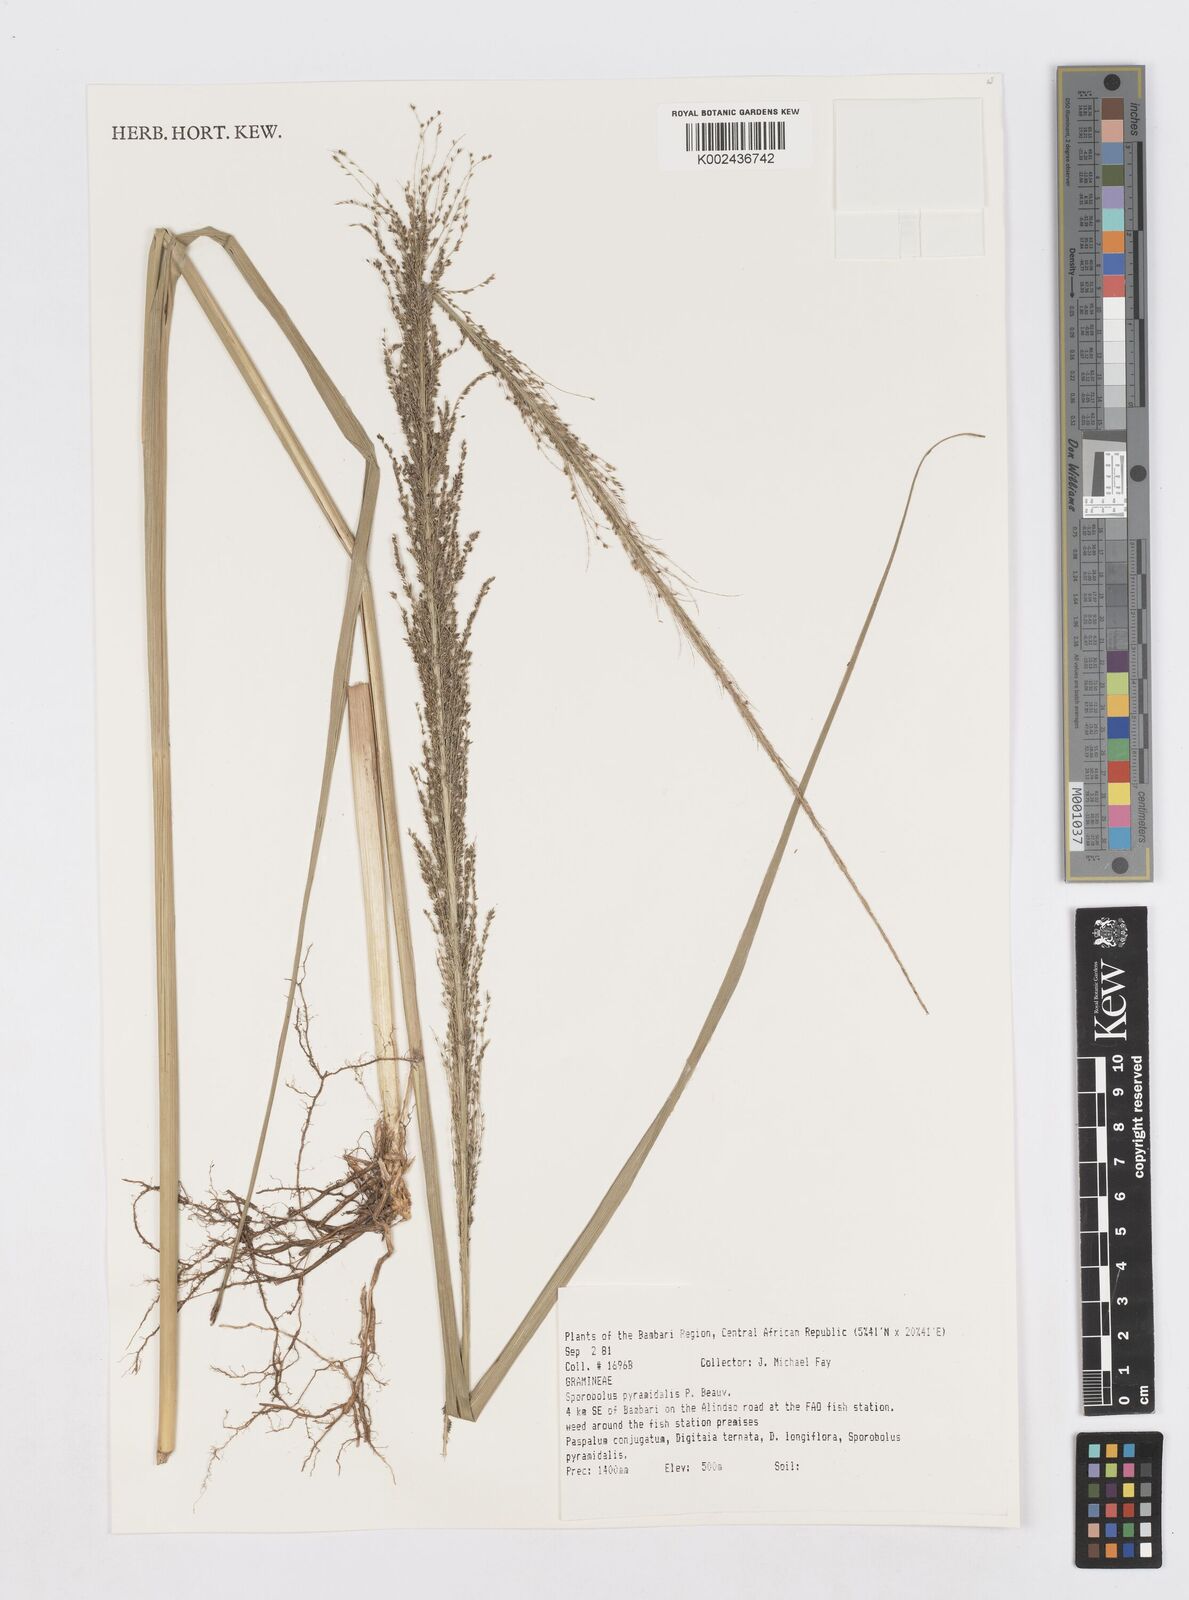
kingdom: Plantae
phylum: Tracheophyta
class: Liliopsida
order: Poales
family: Poaceae
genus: Sporobolus
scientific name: Sporobolus pyramidalis
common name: West indian dropseed
